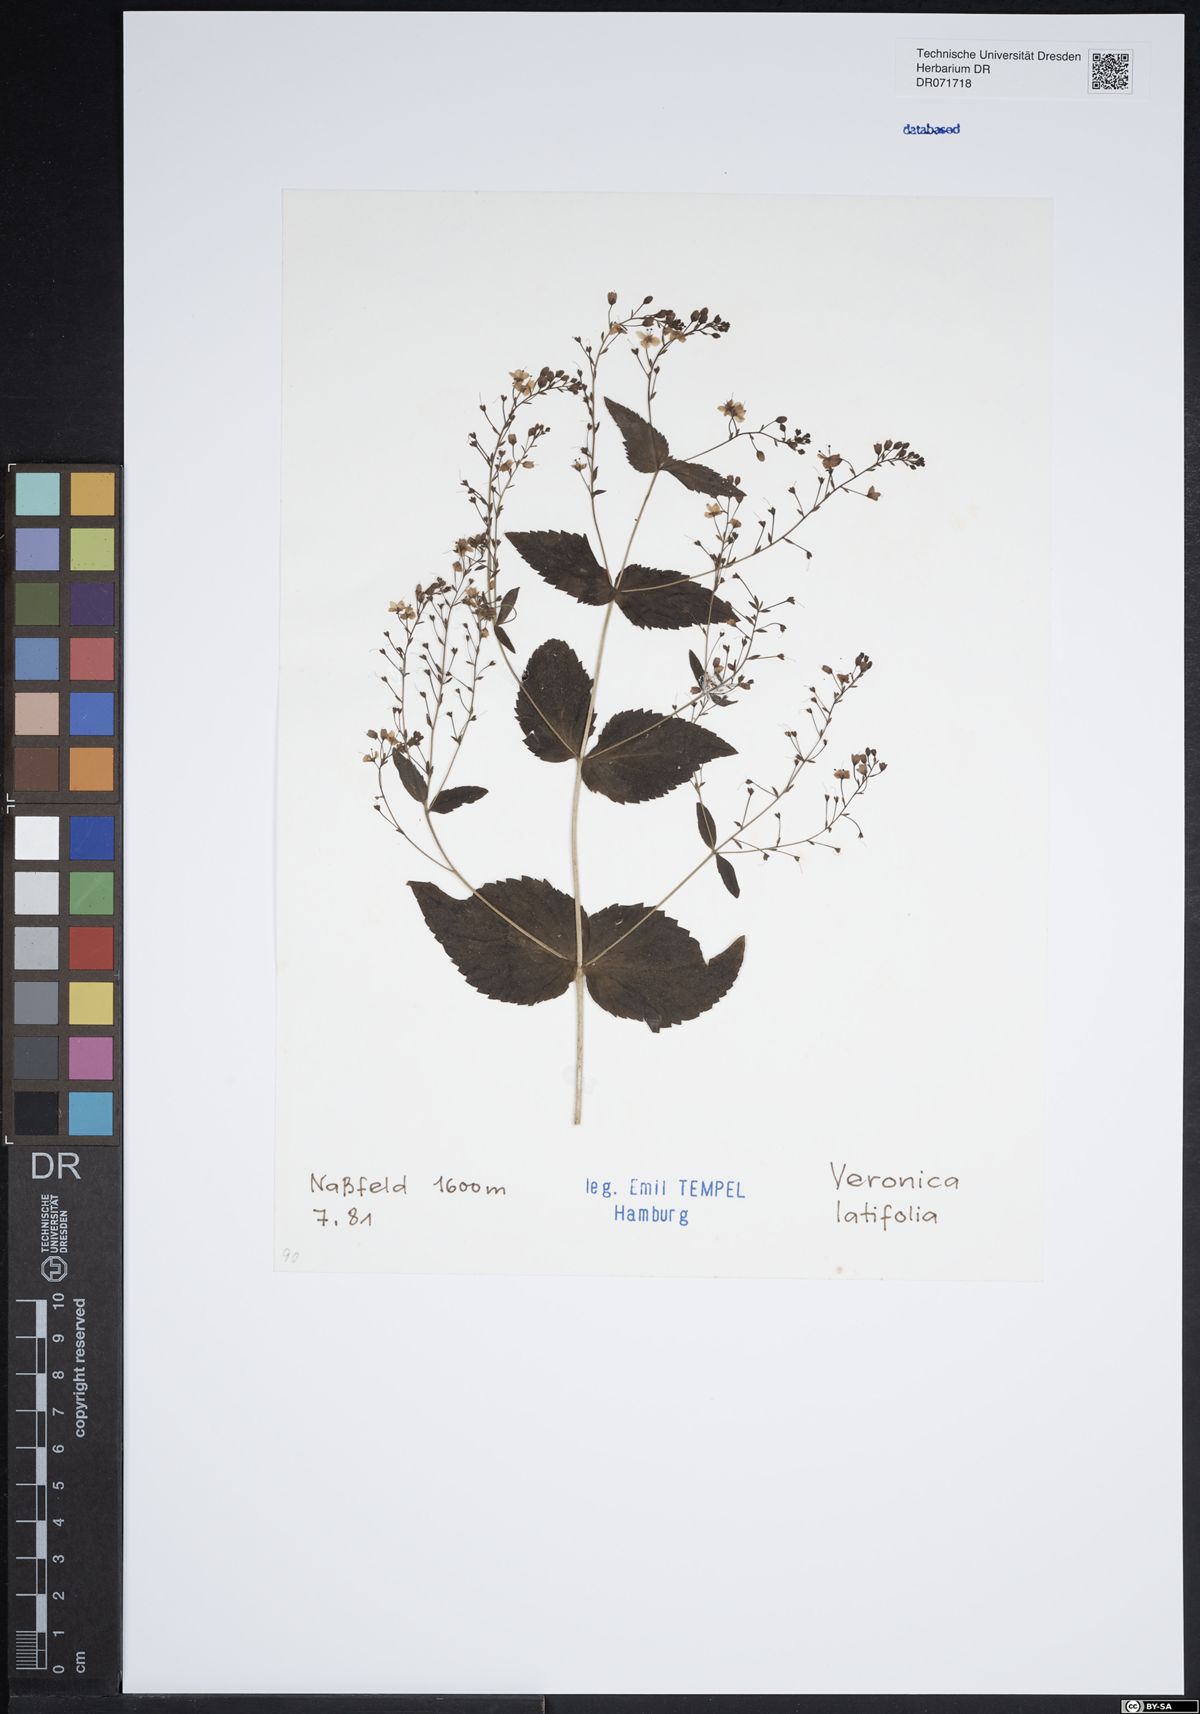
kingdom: Plantae
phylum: Tracheophyta
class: Magnoliopsida
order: Lamiales
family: Plantaginaceae
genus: Veronica
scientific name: Veronica teucrium
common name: Large speedwell
